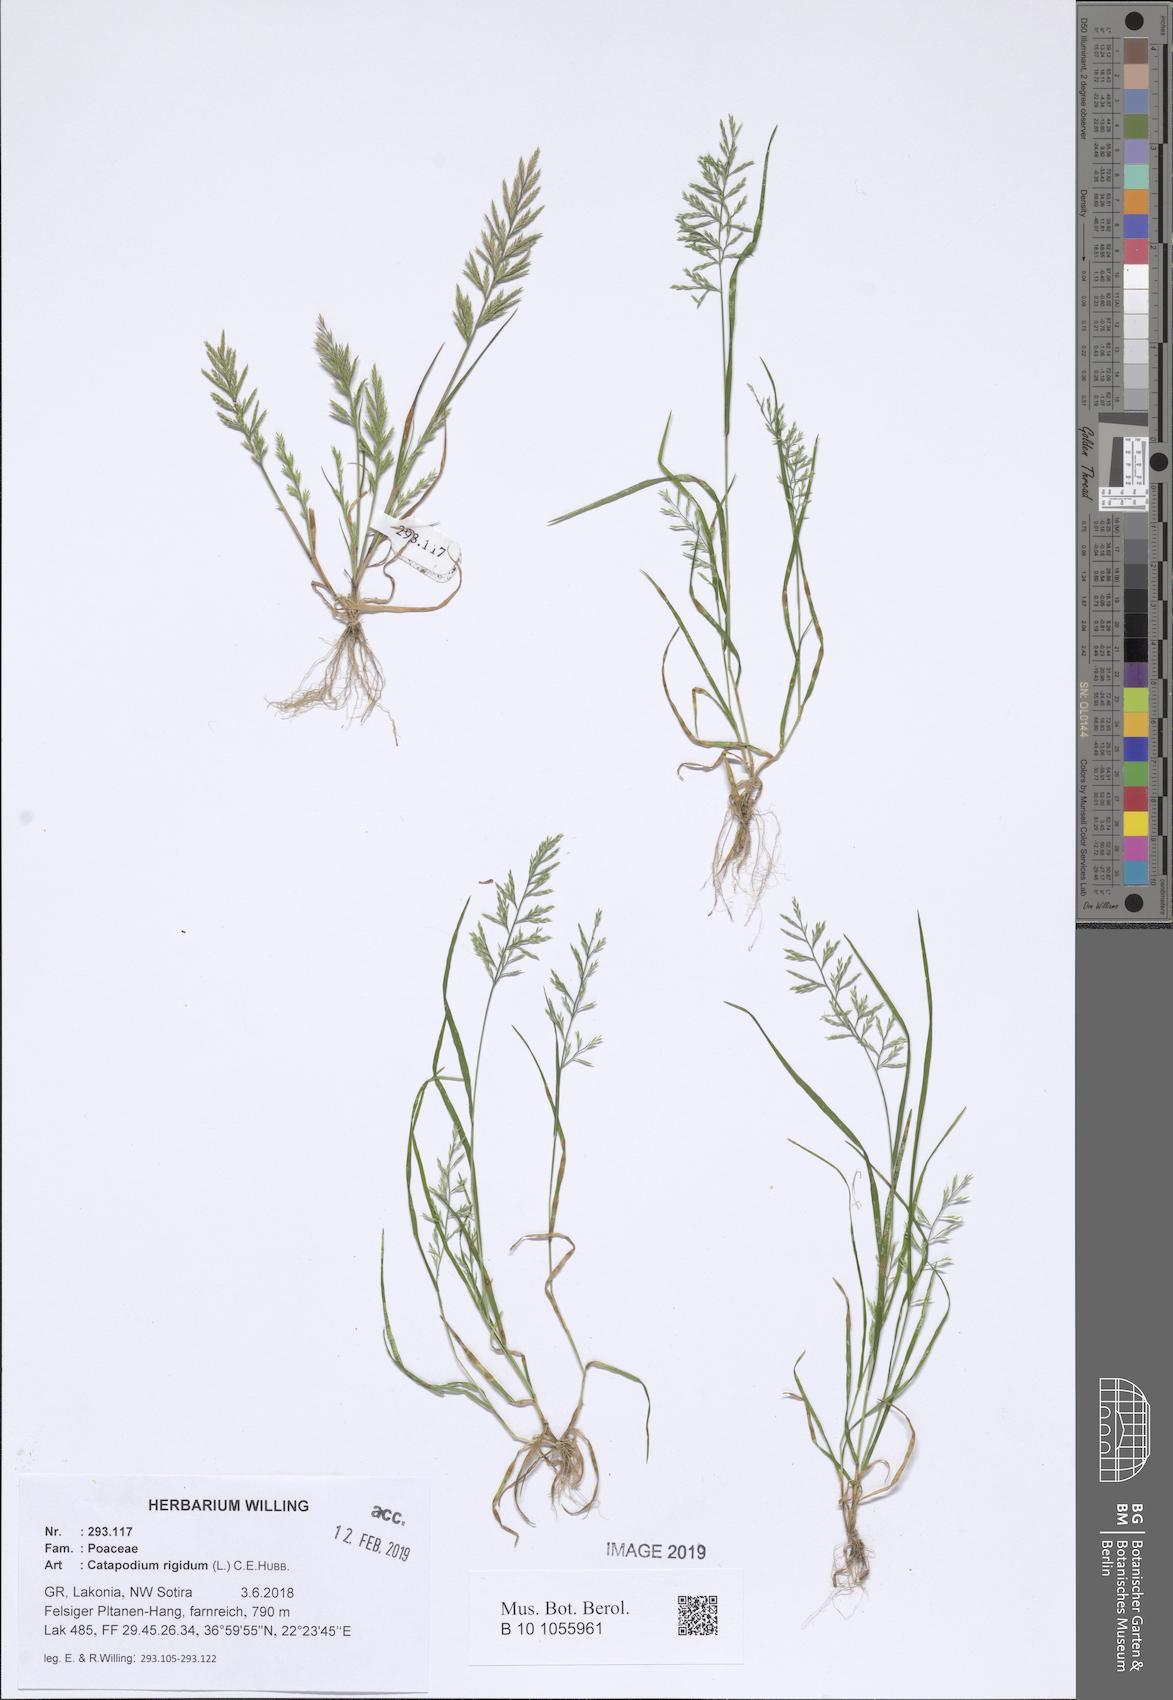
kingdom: Plantae
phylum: Tracheophyta
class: Liliopsida
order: Poales
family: Poaceae
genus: Catapodium
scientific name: Catapodium rigidum
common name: Fern-grass
